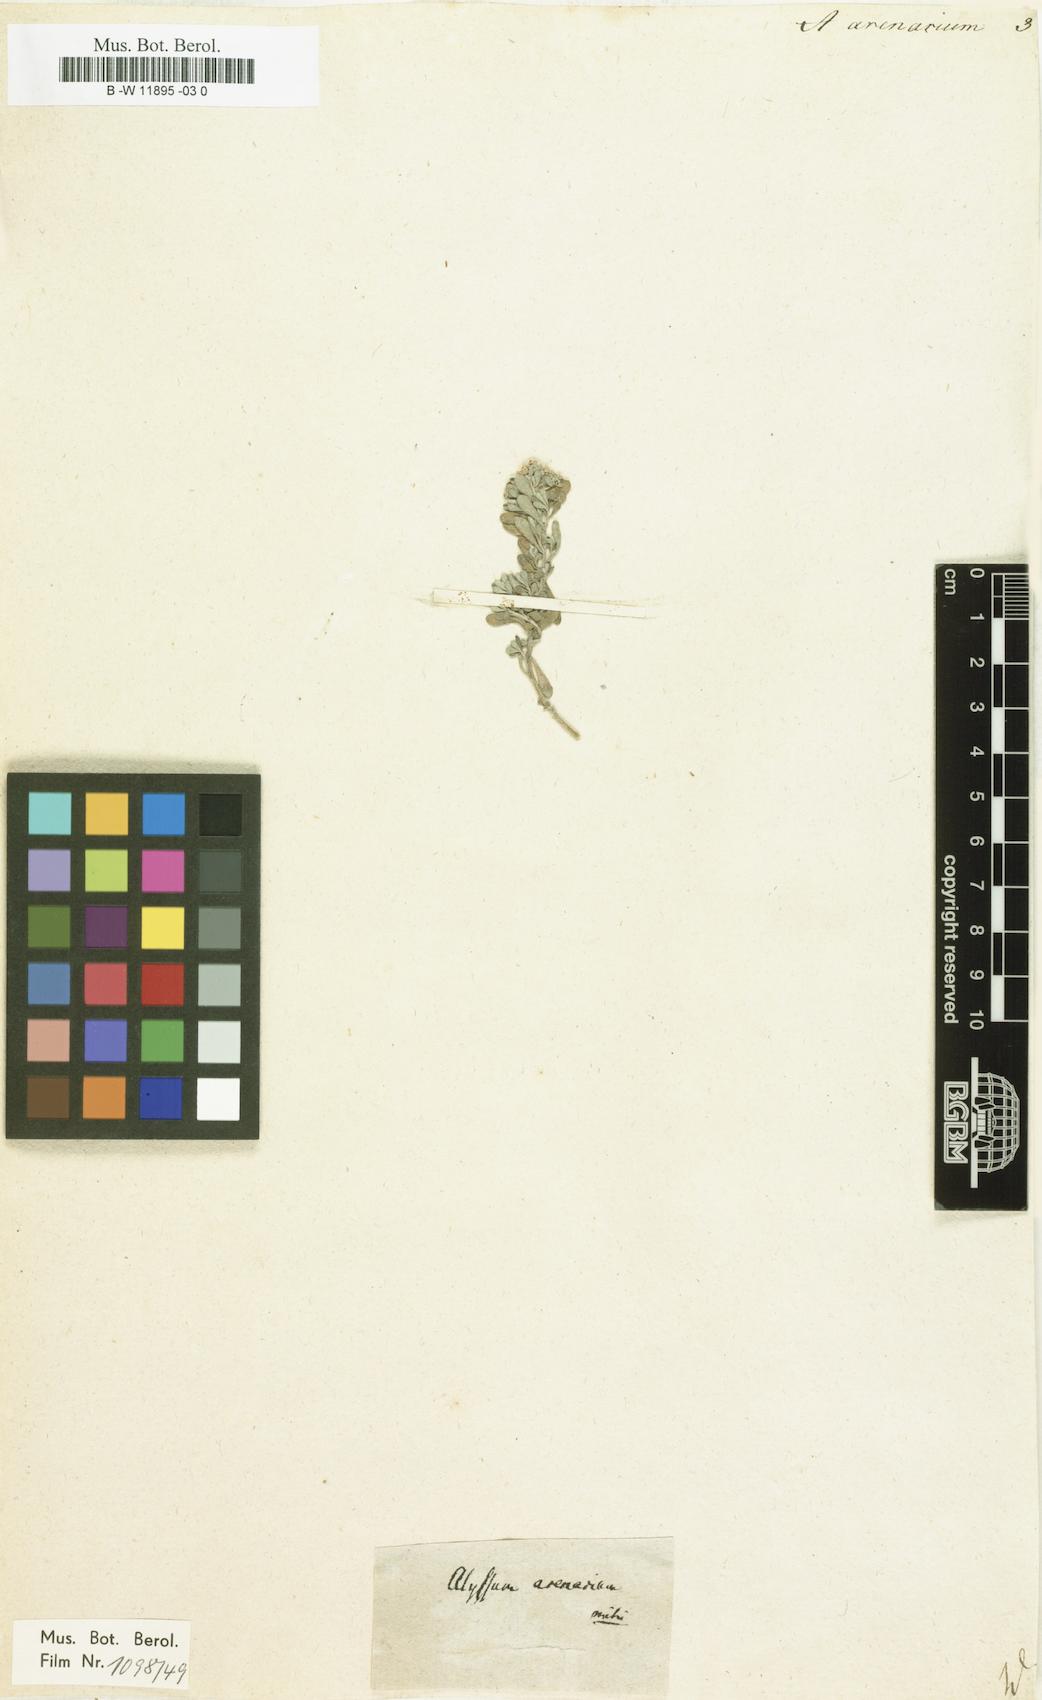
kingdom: Plantae
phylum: Tracheophyta
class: Magnoliopsida
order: Brassicales
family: Brassicaceae
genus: Alyssum
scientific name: Alyssum gmelinii
